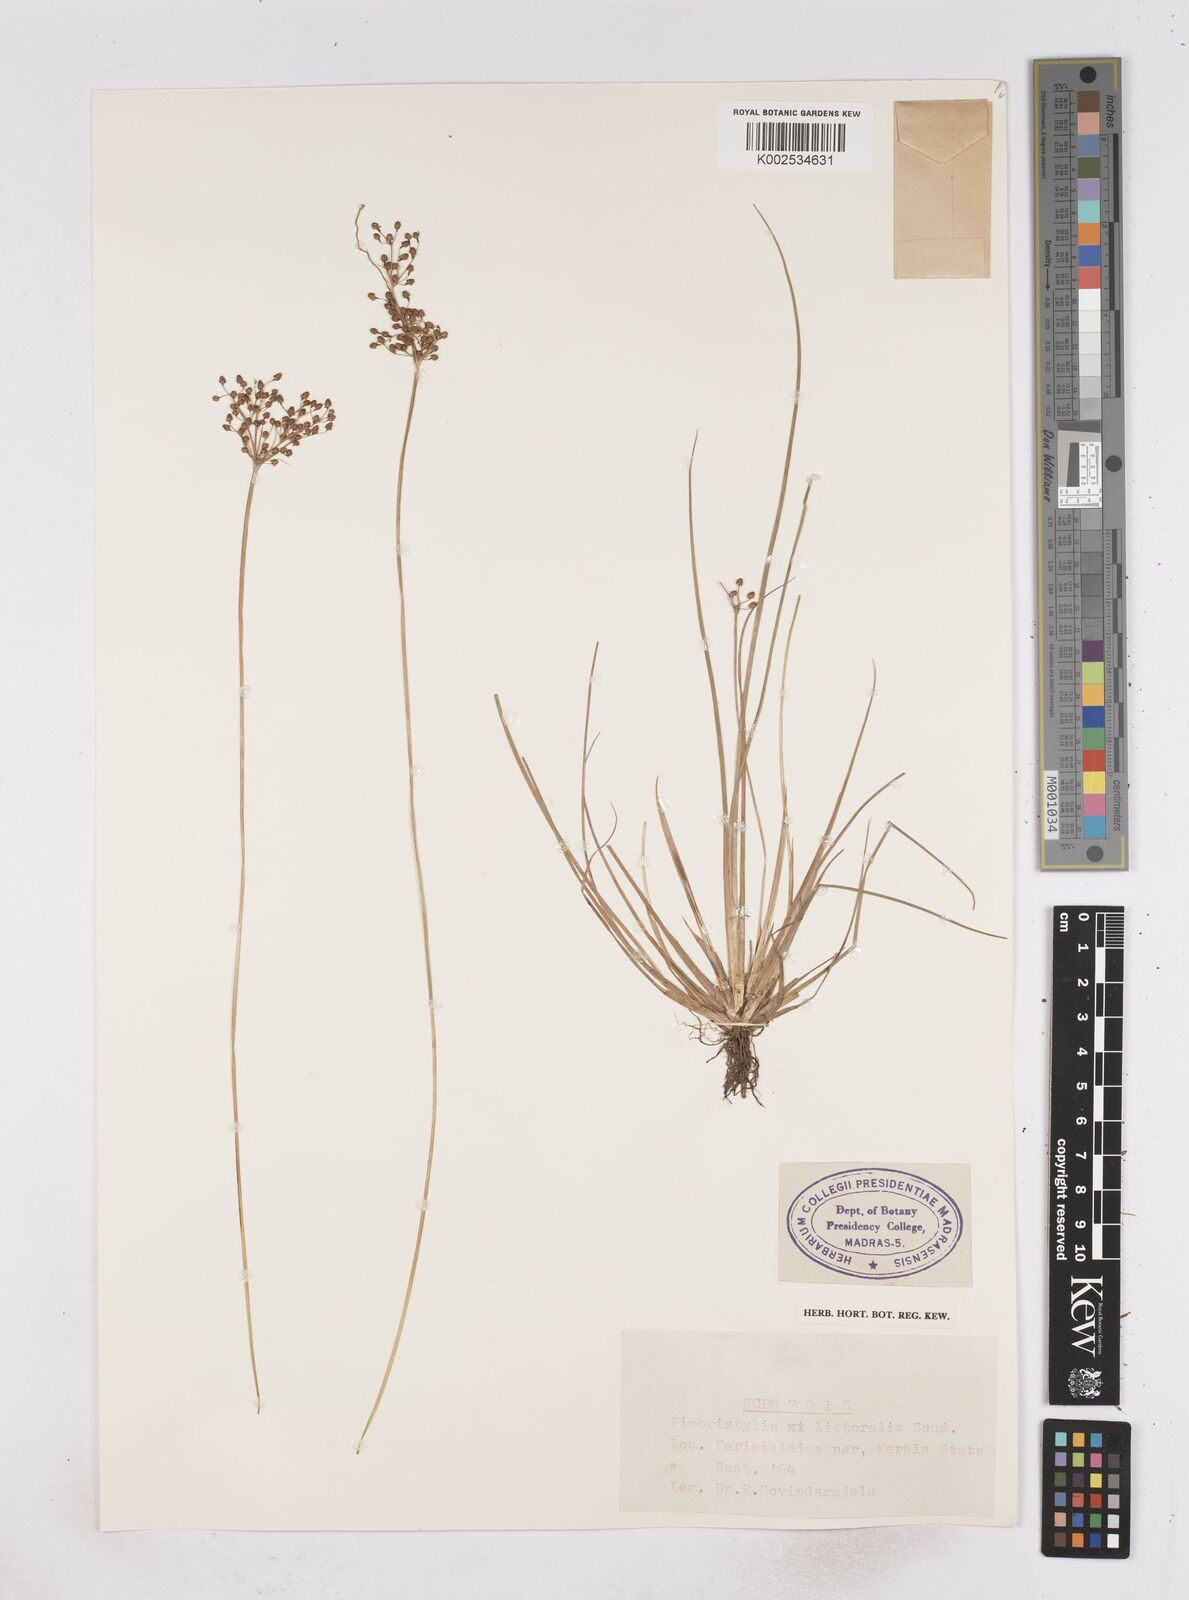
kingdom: Plantae
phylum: Tracheophyta
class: Liliopsida
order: Poales
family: Cyperaceae
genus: Fimbristylis
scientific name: Fimbristylis littoralis
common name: Fimbry
